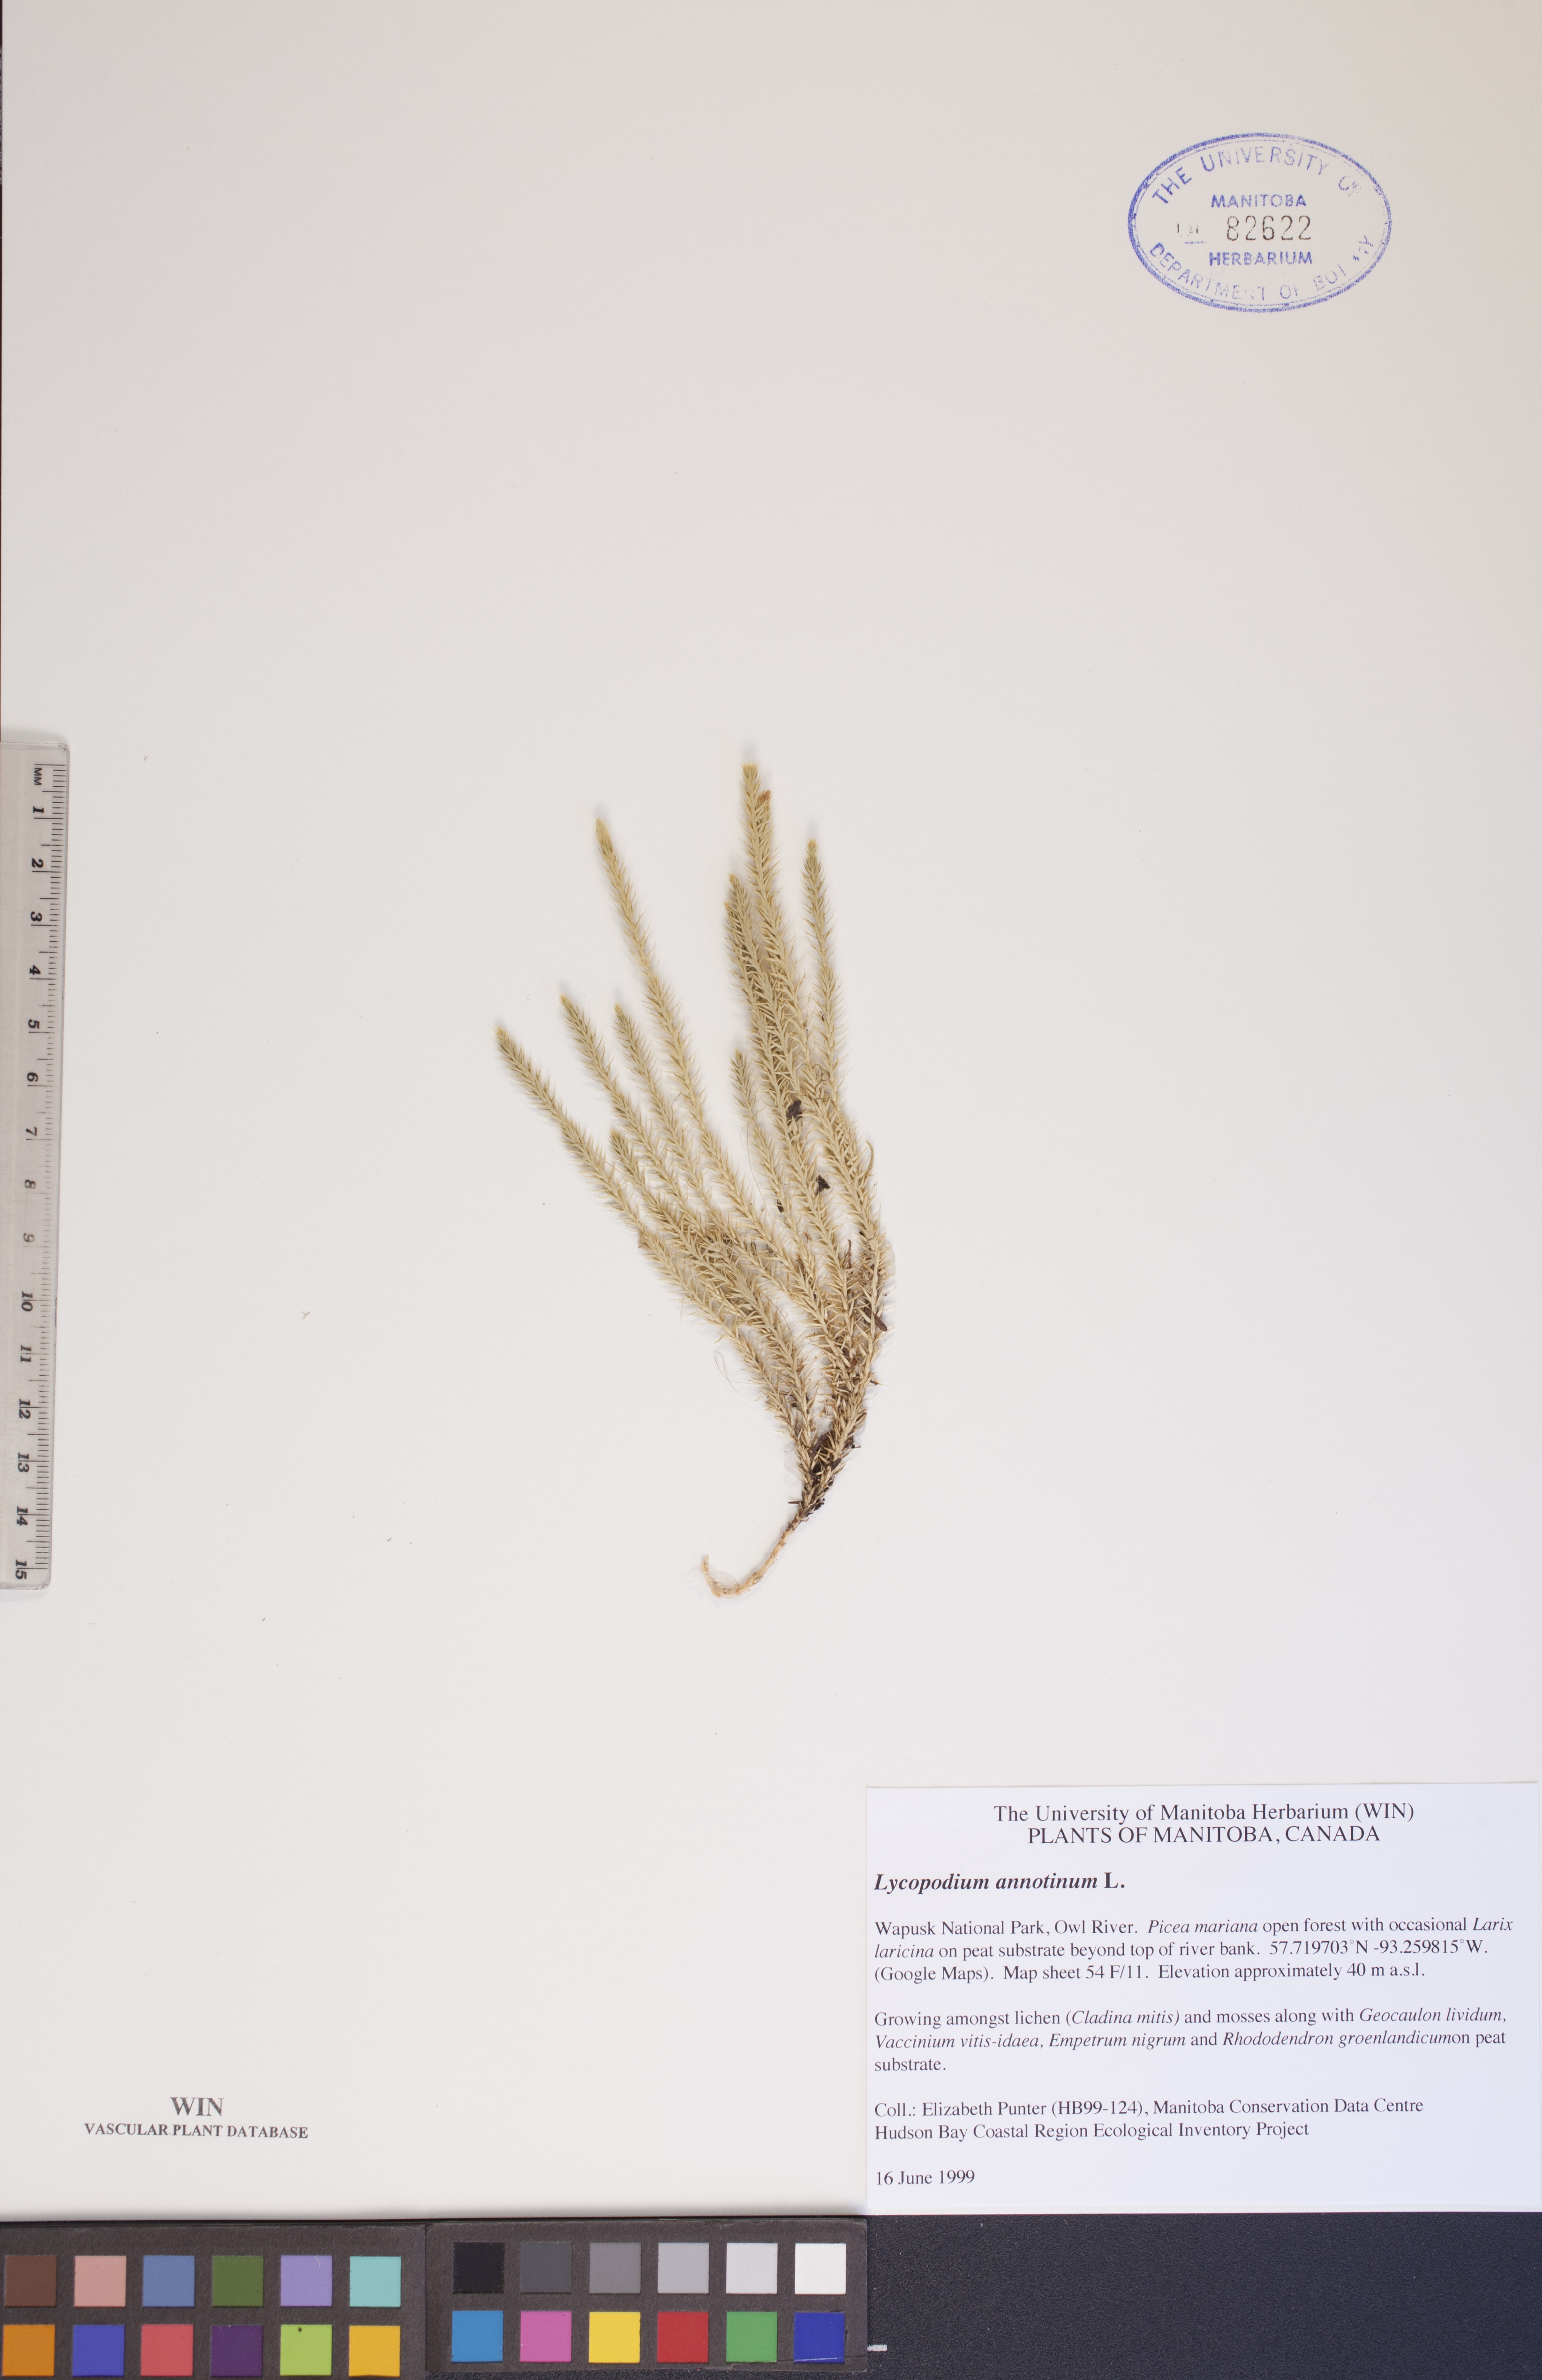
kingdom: Plantae
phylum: Tracheophyta
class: Lycopodiopsida
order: Lycopodiales
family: Lycopodiaceae
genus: Spinulum
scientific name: Spinulum annotinum
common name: Interrupted club-moss
